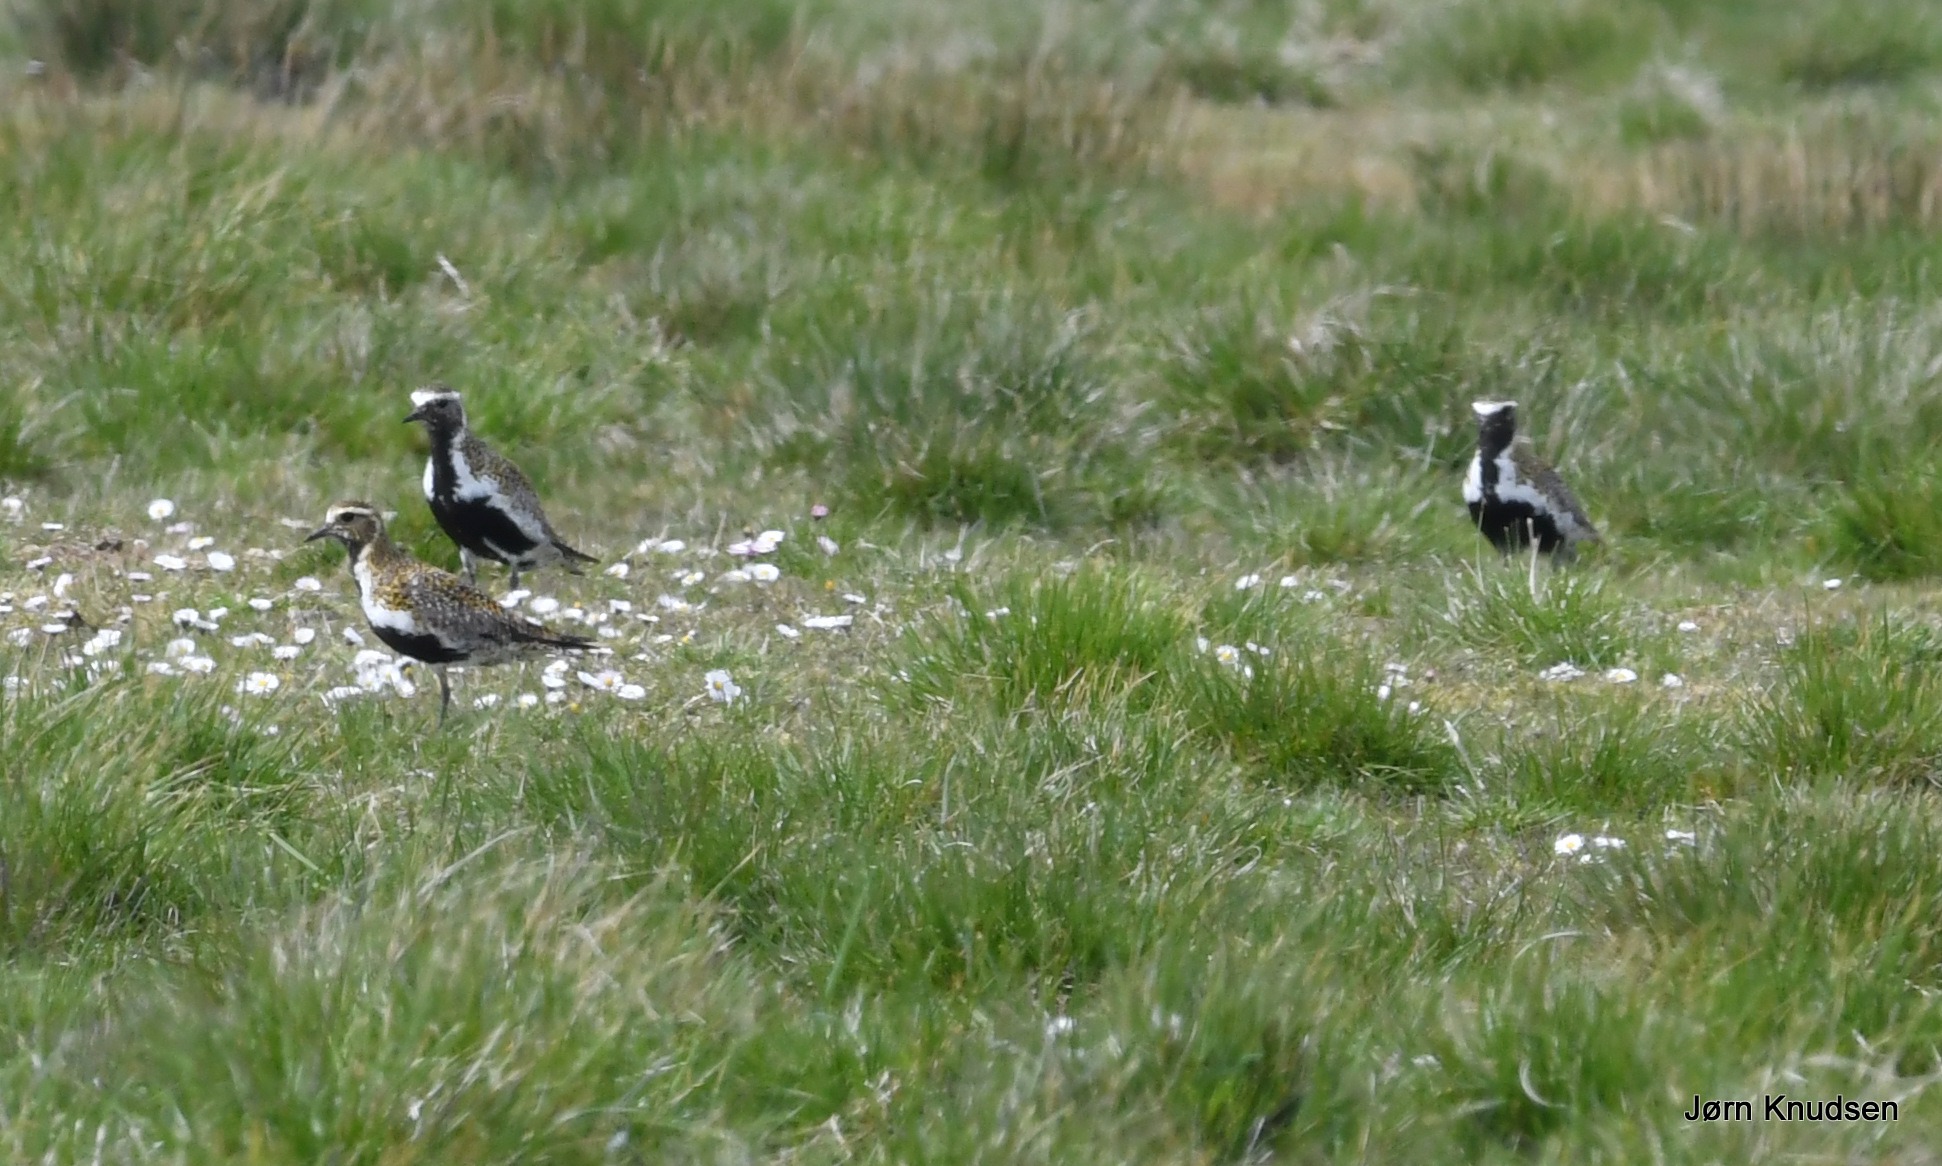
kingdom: Animalia
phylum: Chordata
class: Aves
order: Charadriiformes
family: Charadriidae
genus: Pluvialis
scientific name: Pluvialis apricaria
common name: Hjejle
